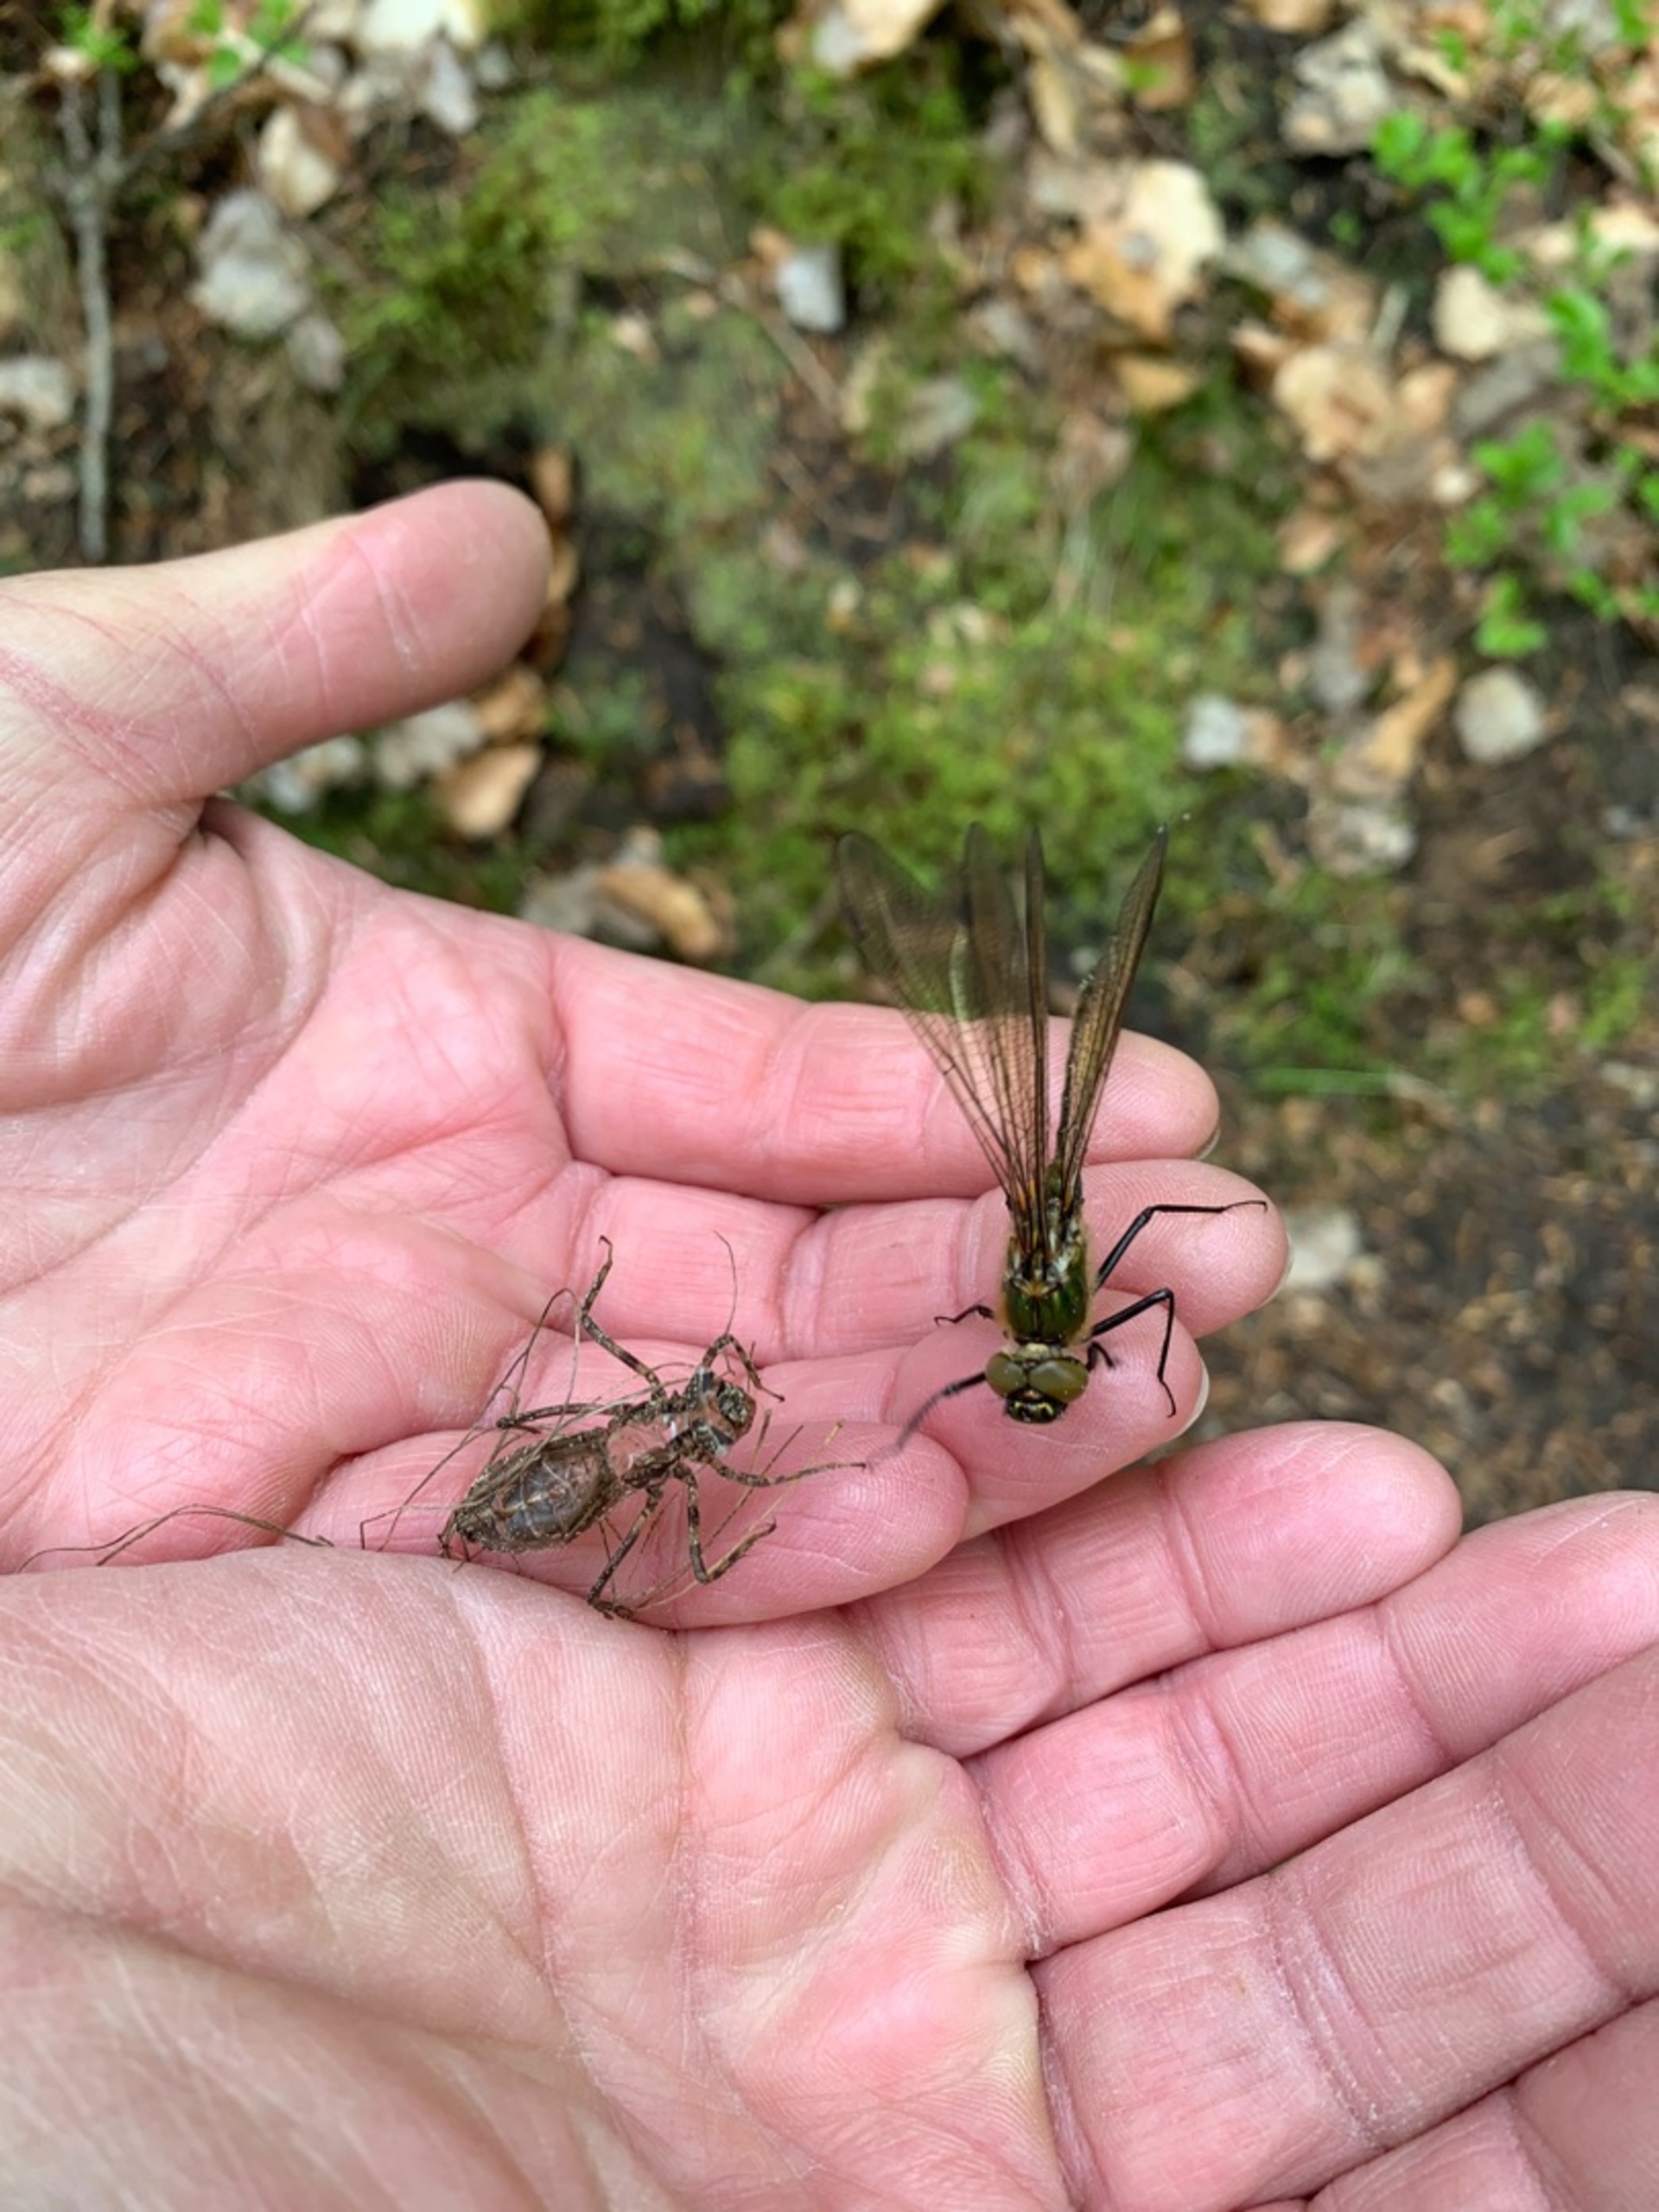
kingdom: Animalia
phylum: Arthropoda
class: Insecta
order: Odonata
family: Corduliidae
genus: Cordulia
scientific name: Cordulia aenea
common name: Grøn smaragdlibel
